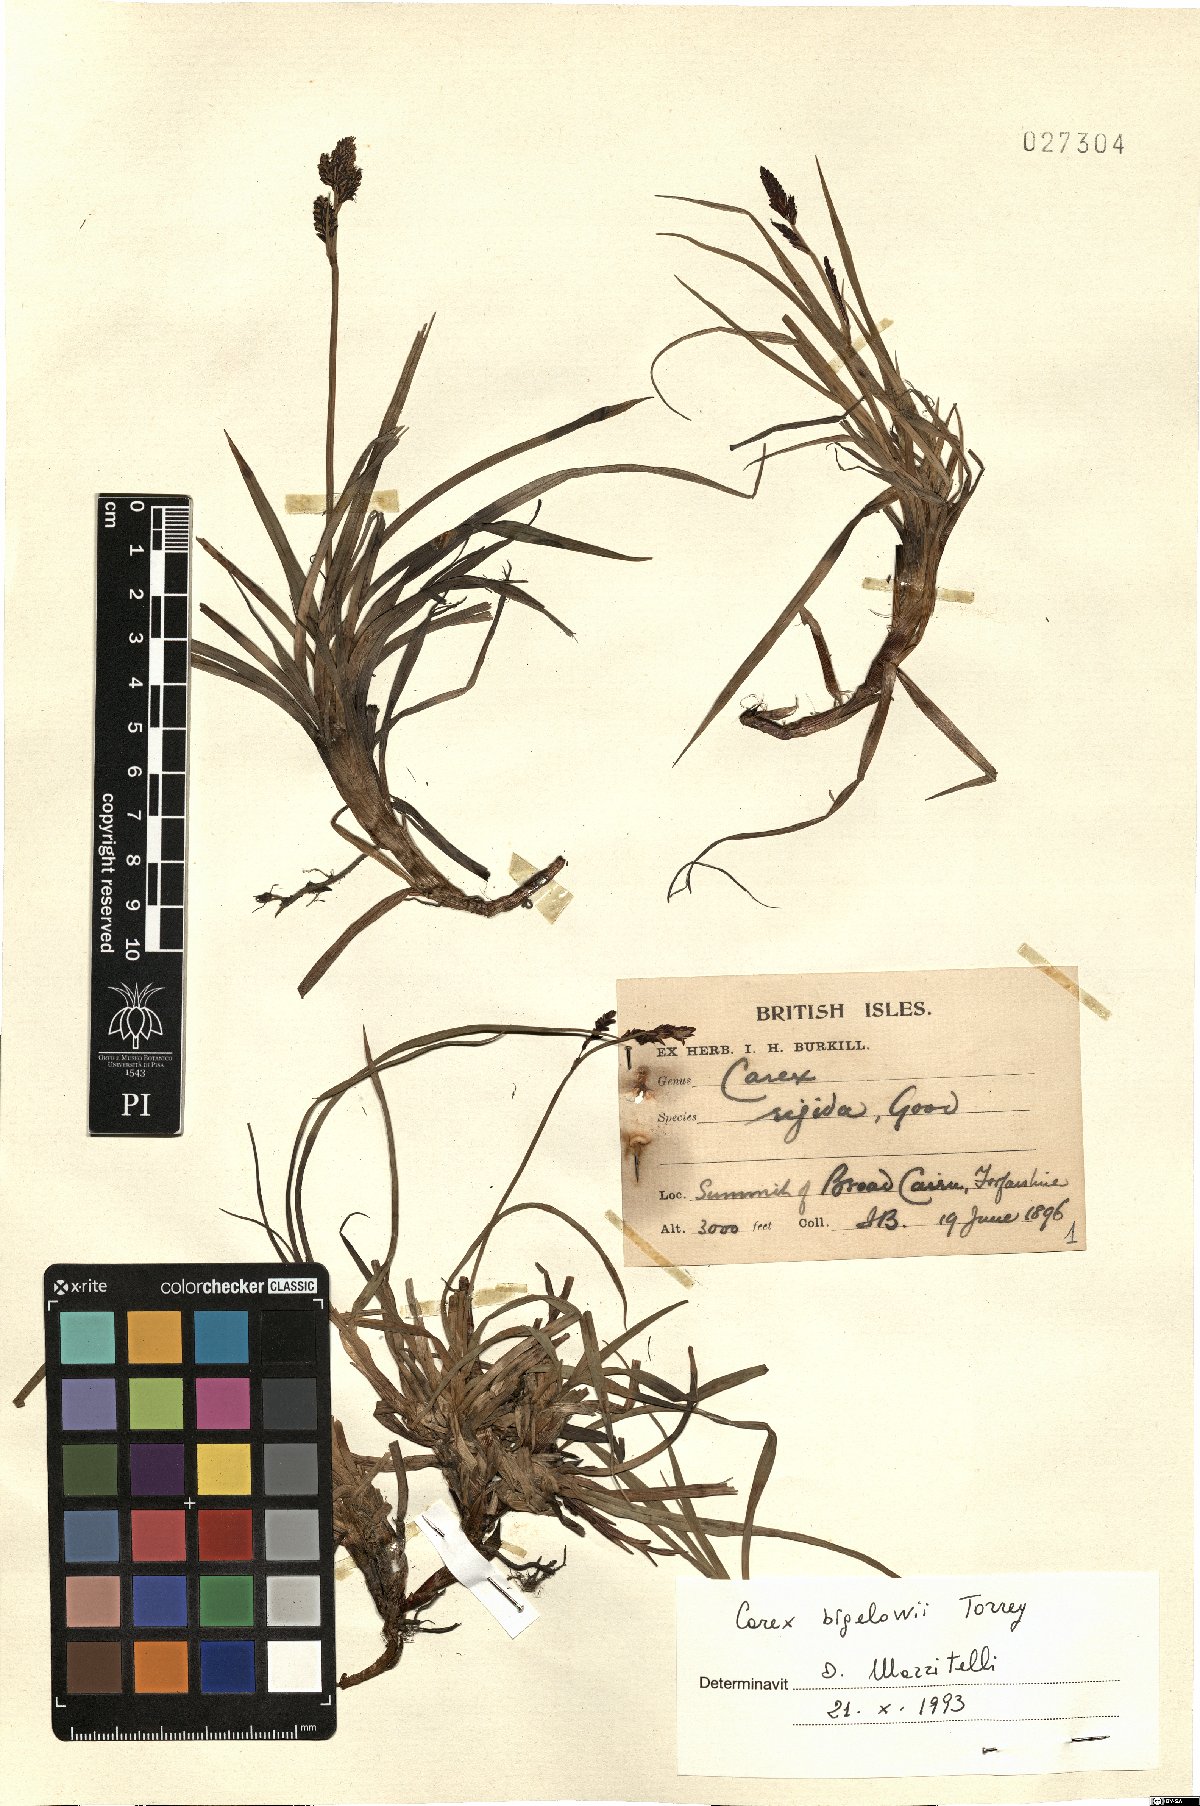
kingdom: Plantae
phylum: Tracheophyta
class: Liliopsida
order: Poales
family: Cyperaceae
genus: Carex
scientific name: Carex bigelowii
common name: Stiff sedge
